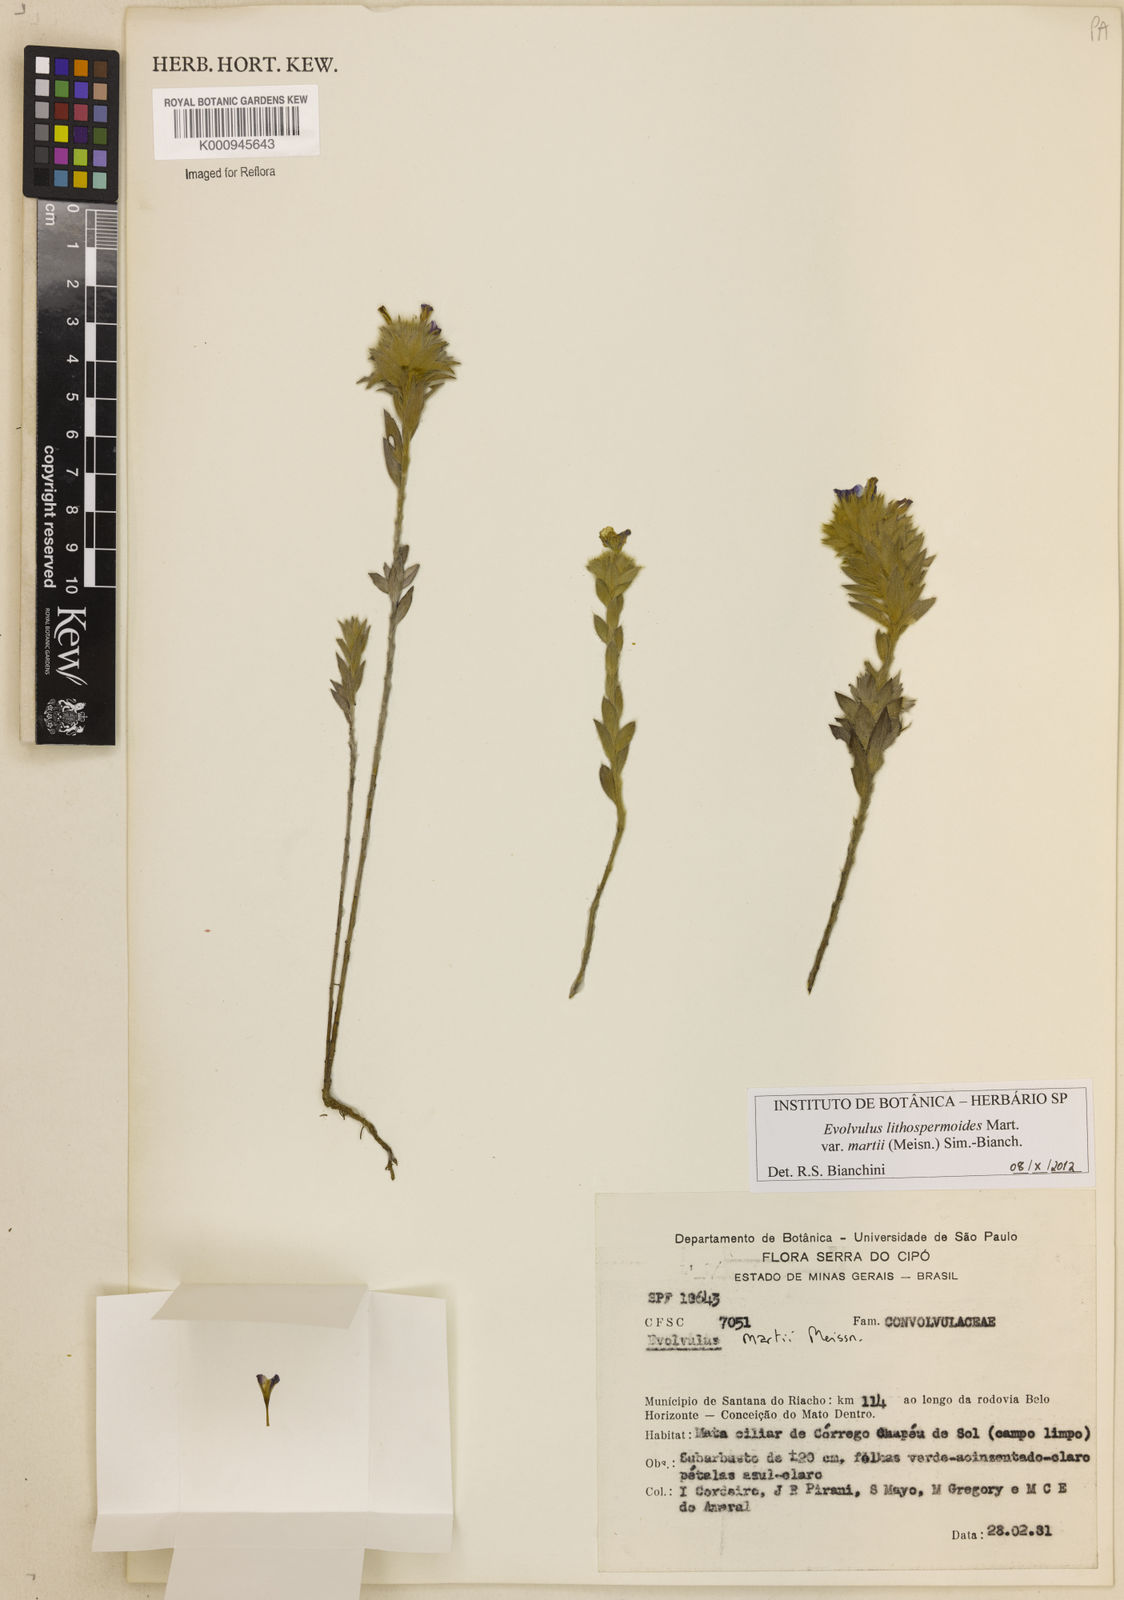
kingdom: Plantae
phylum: Tracheophyta
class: Magnoliopsida
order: Solanales
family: Convolvulaceae
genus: Evolvulus
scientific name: Evolvulus
